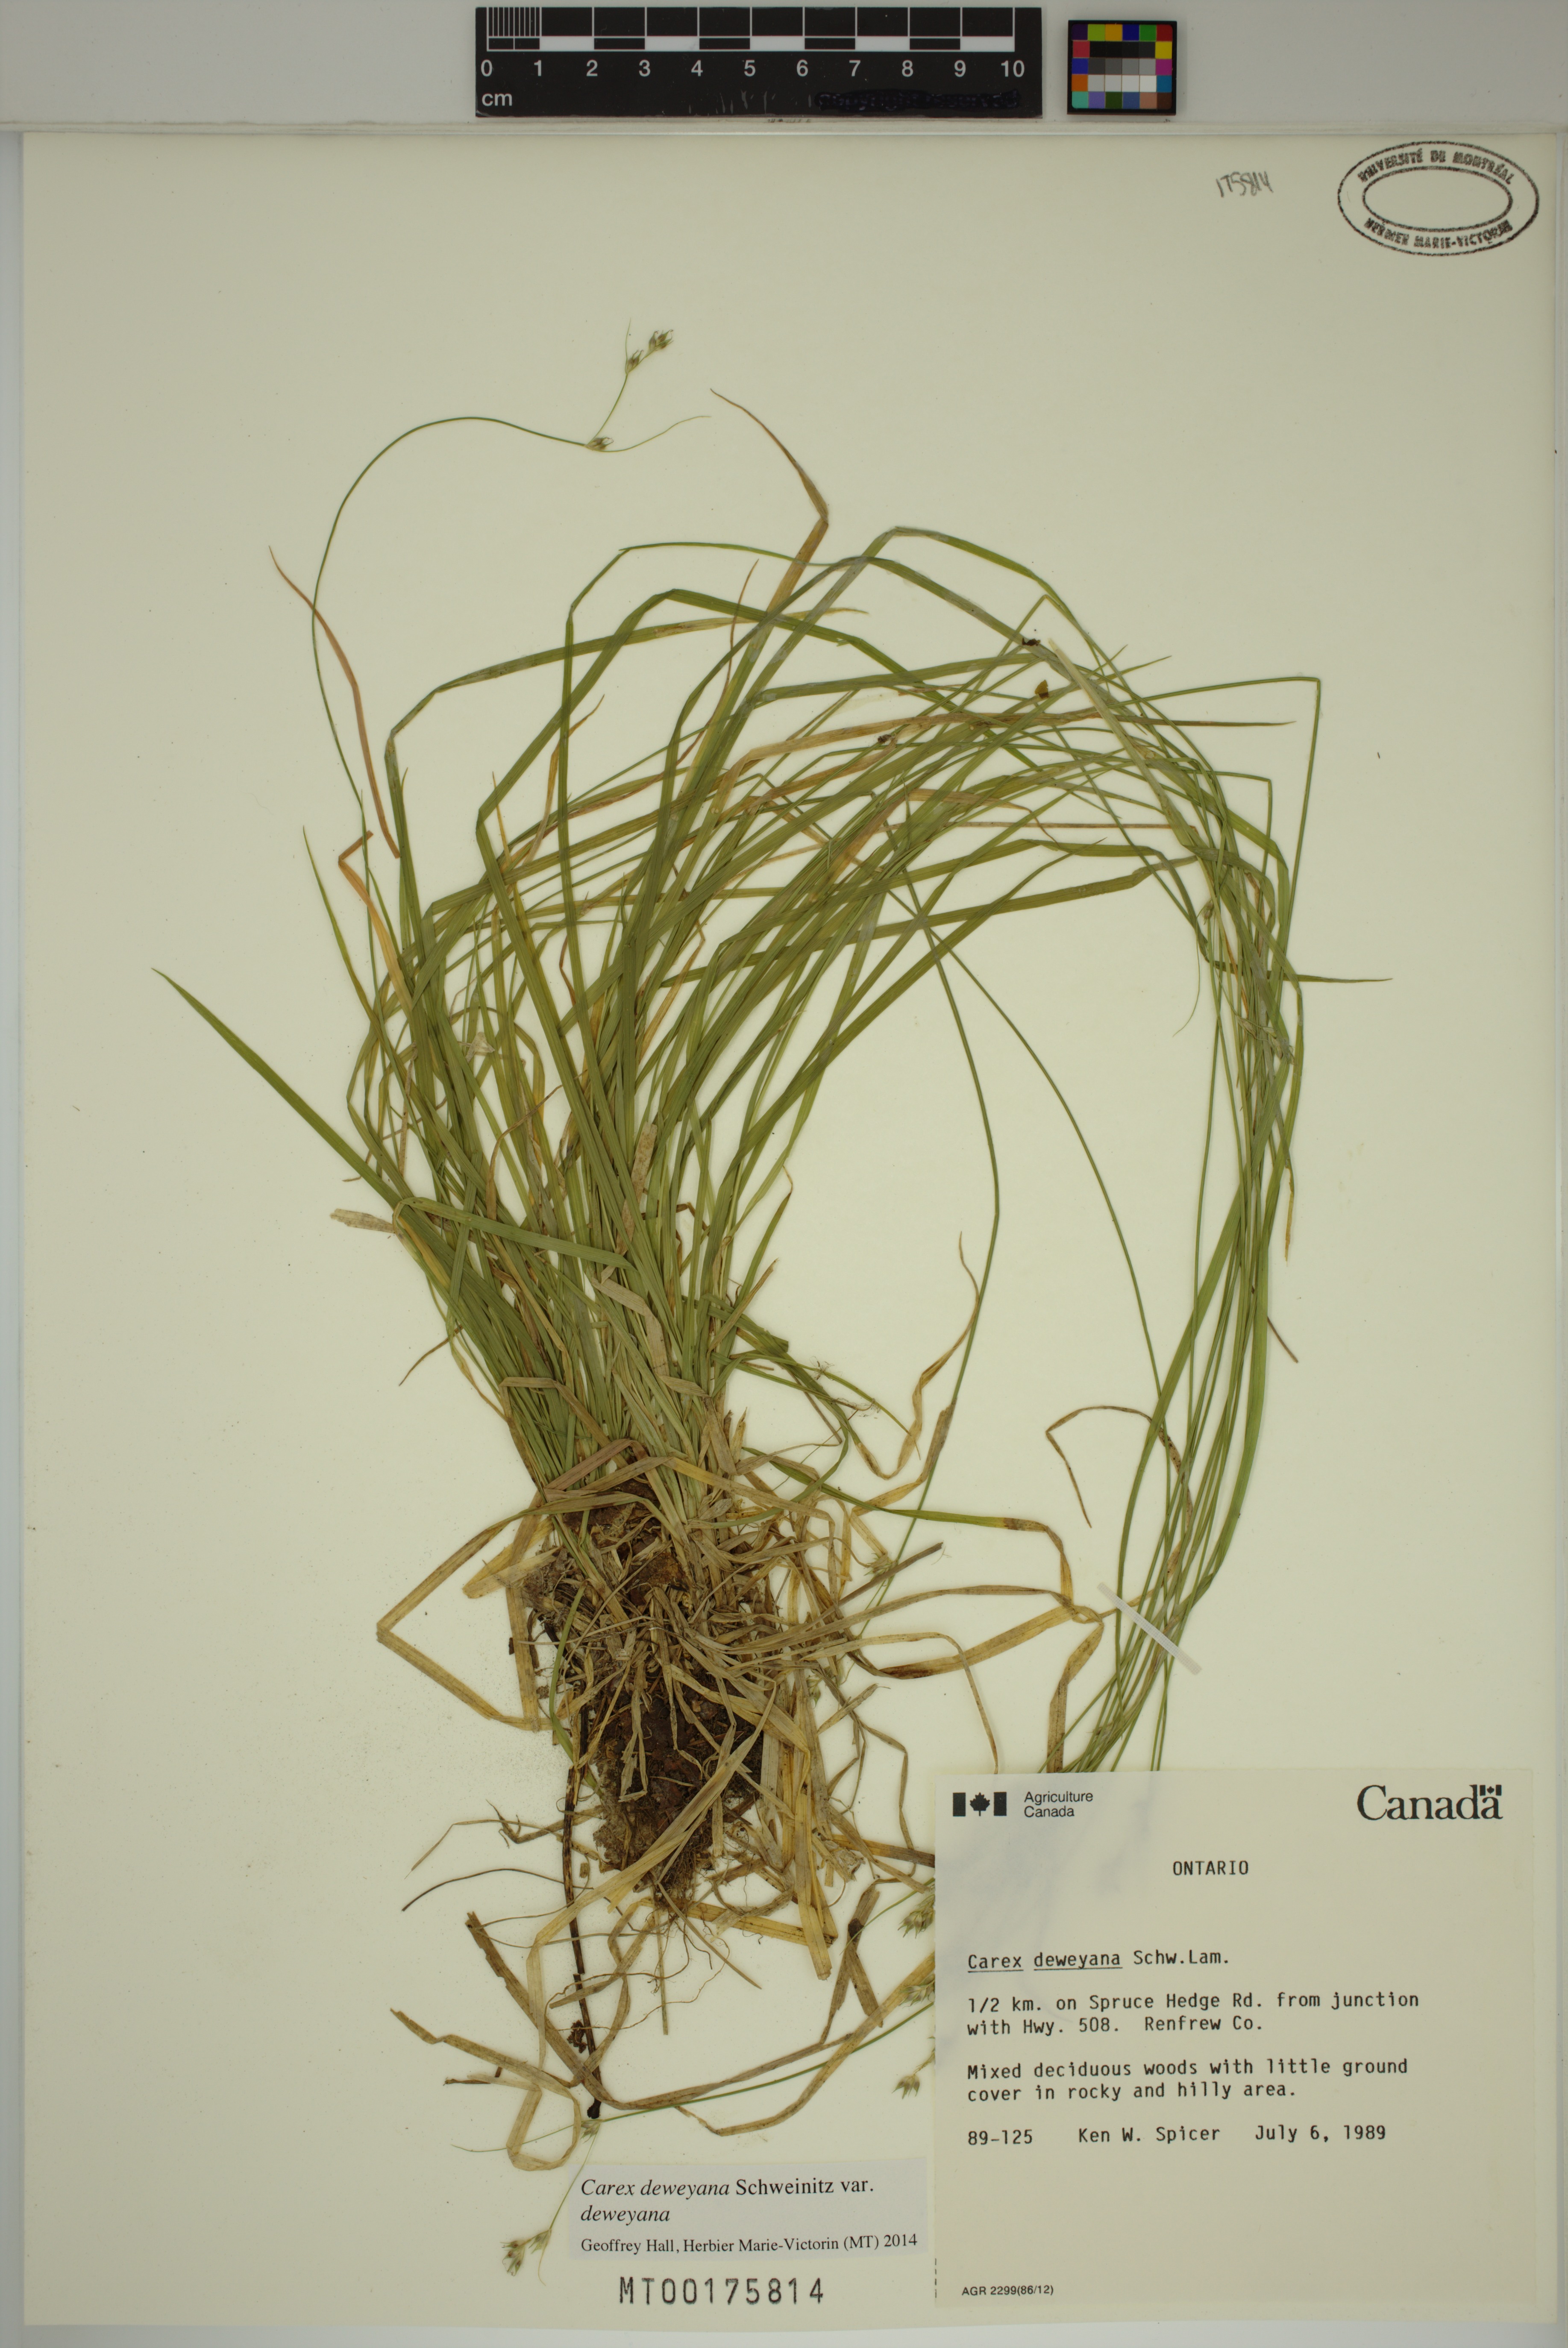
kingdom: Plantae
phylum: Tracheophyta
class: Liliopsida
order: Poales
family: Cyperaceae
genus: Carex
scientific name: Carex deweyana
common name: Dewey's sedge
